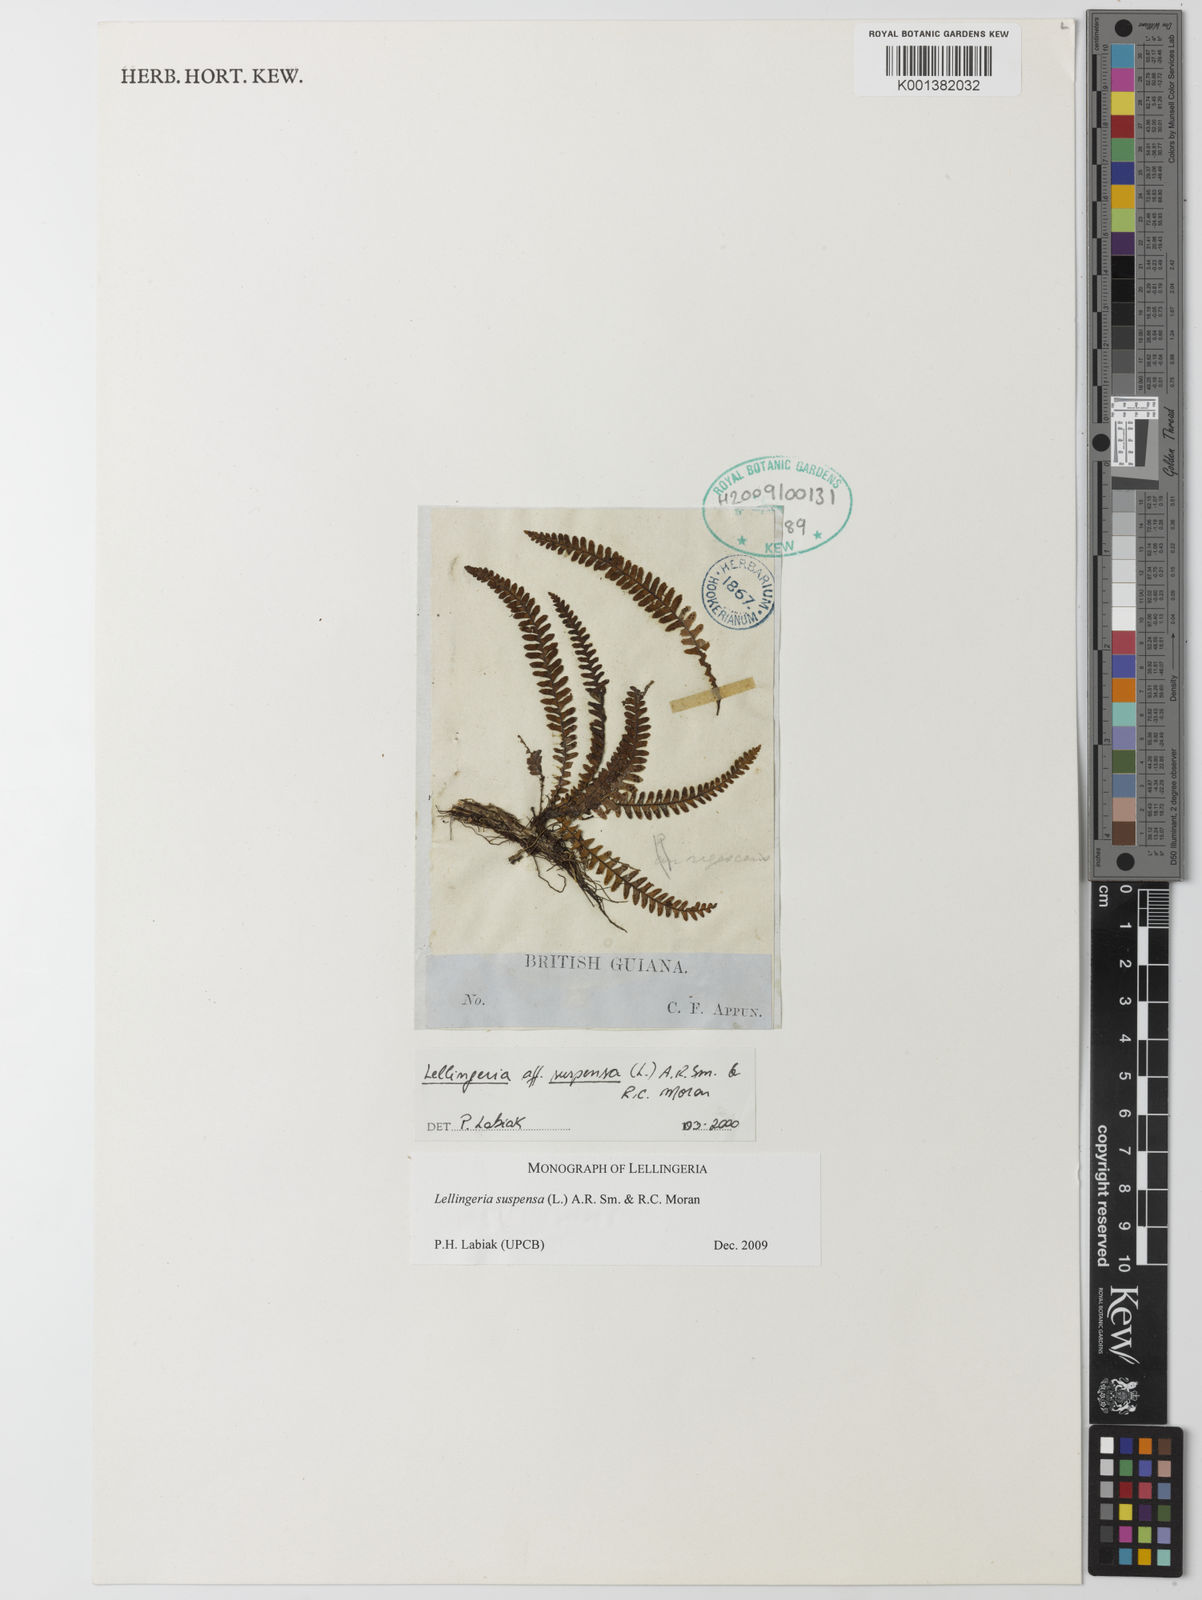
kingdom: Plantae
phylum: Tracheophyta
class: Polypodiopsida
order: Polypodiales
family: Polypodiaceae
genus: Lellingeria
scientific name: Lellingeria suspensa
